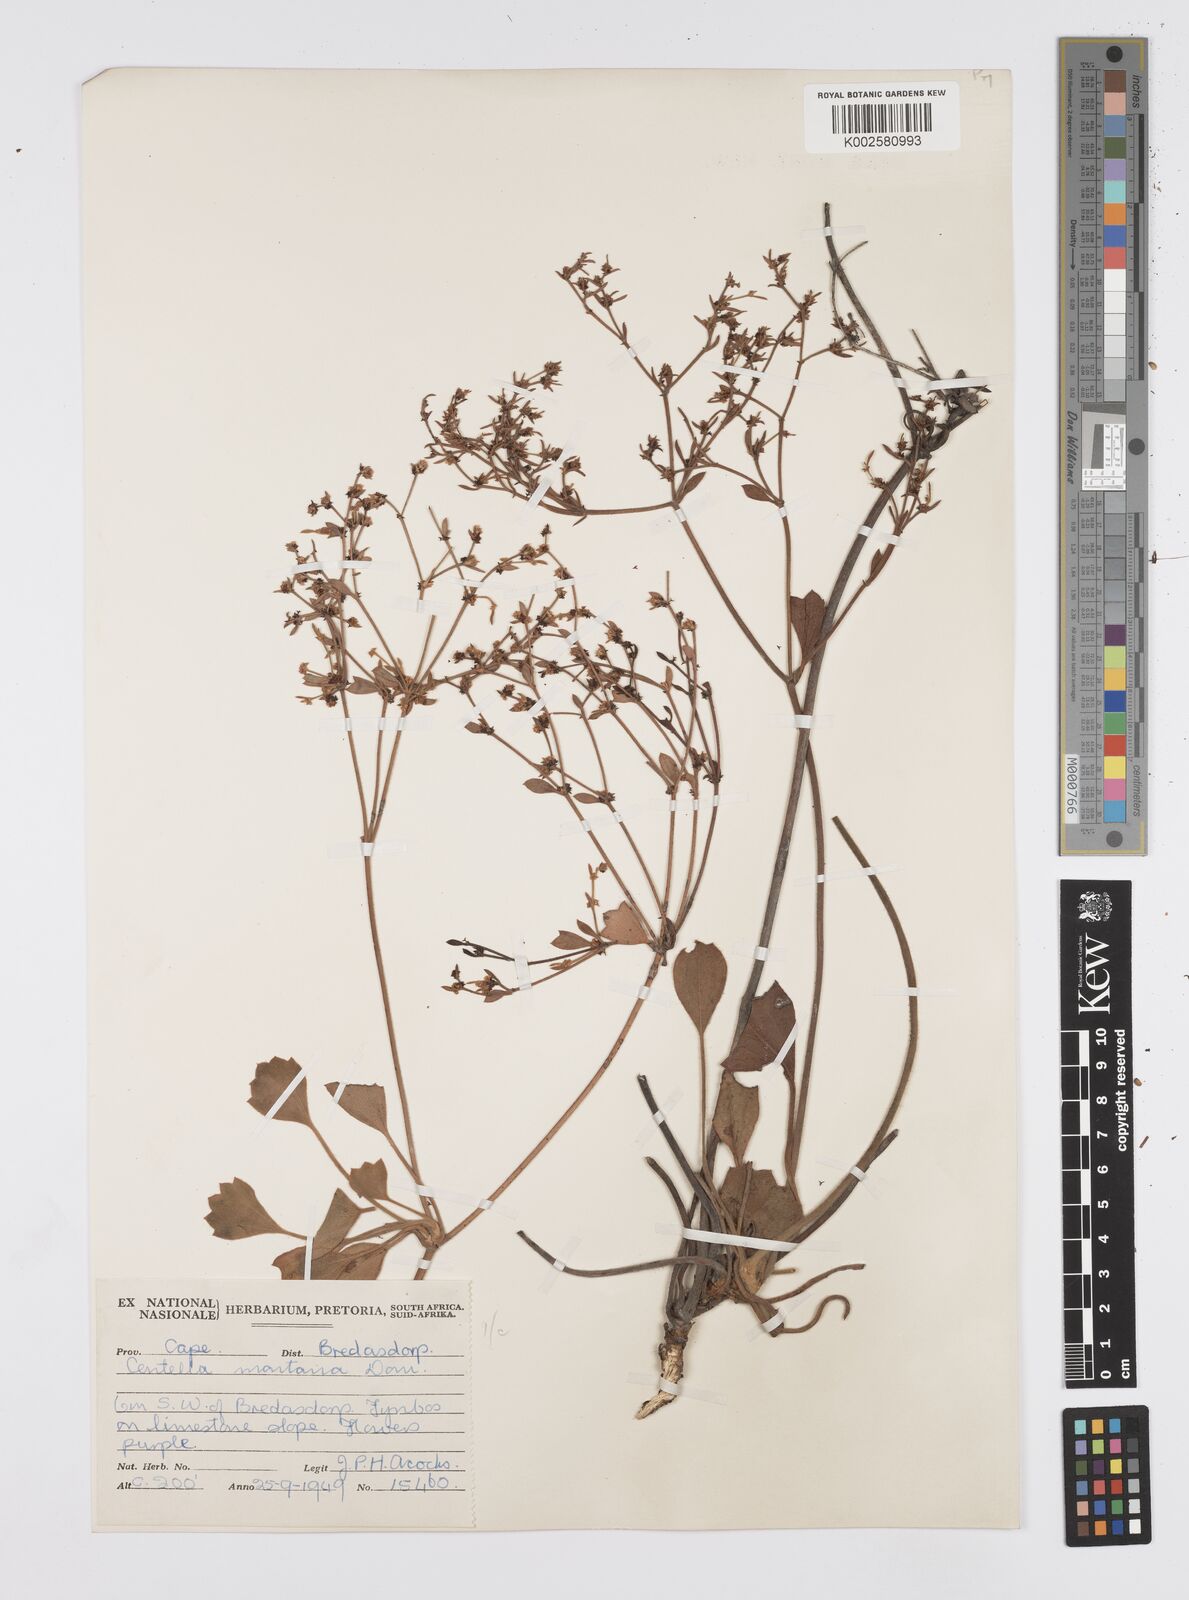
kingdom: Plantae
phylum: Tracheophyta
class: Magnoliopsida
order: Apiales
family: Apiaceae
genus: Centella
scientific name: Centella montana
